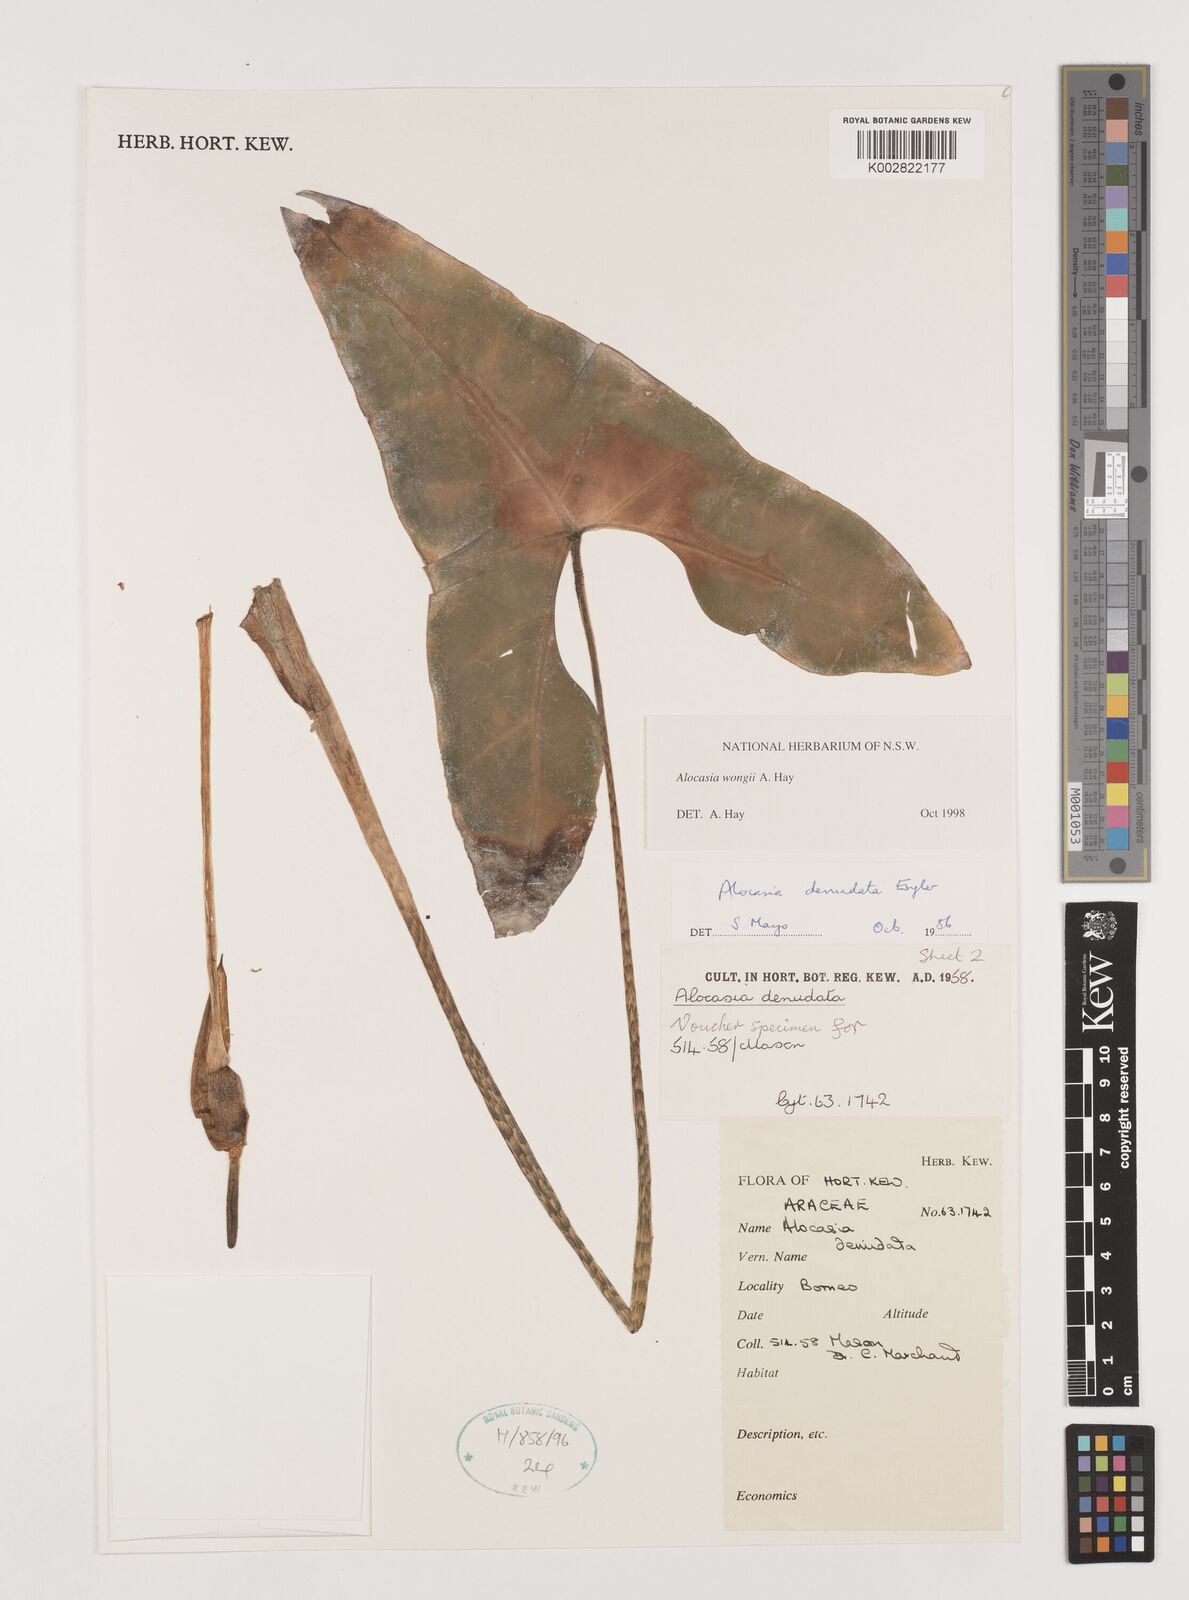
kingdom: Plantae
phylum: Tracheophyta
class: Liliopsida
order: Alismatales
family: Araceae
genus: Alocasia
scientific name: Alocasia wongii
